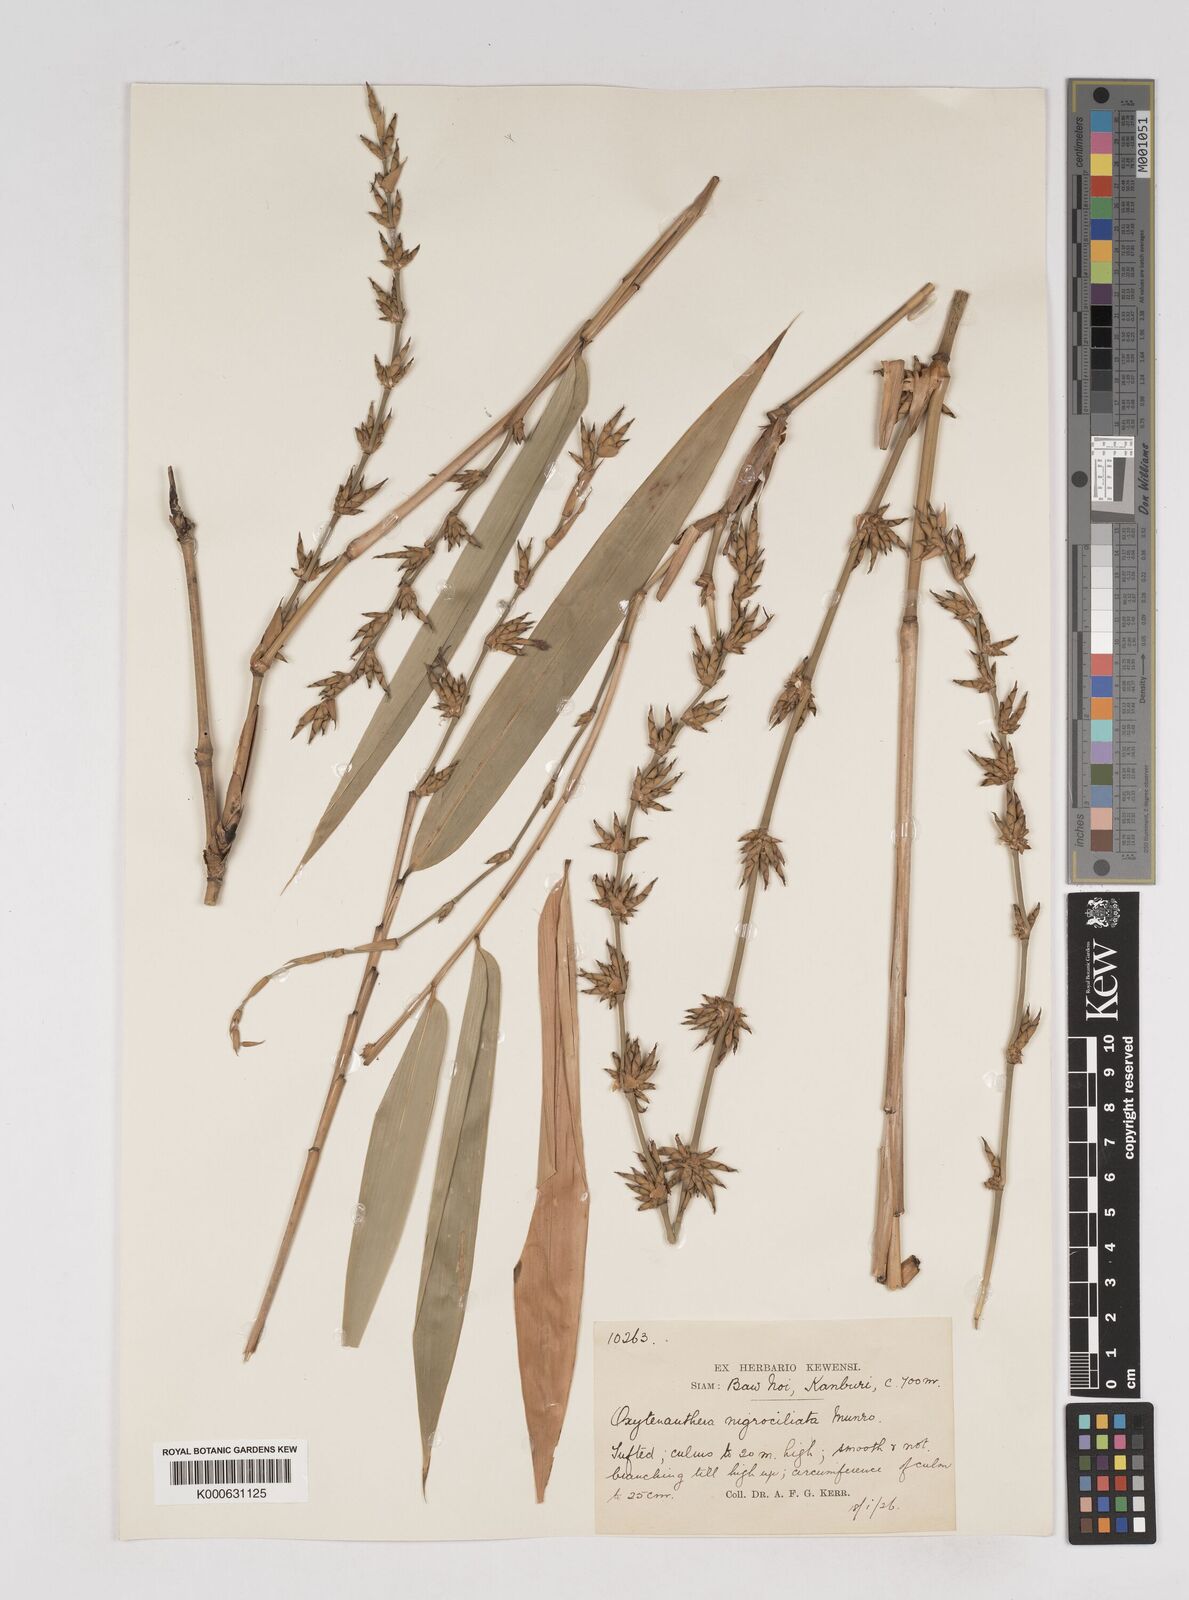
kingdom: Plantae
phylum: Tracheophyta
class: Liliopsida
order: Poales
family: Poaceae
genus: Gigantochloa
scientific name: Gigantochloa nigrociliata
